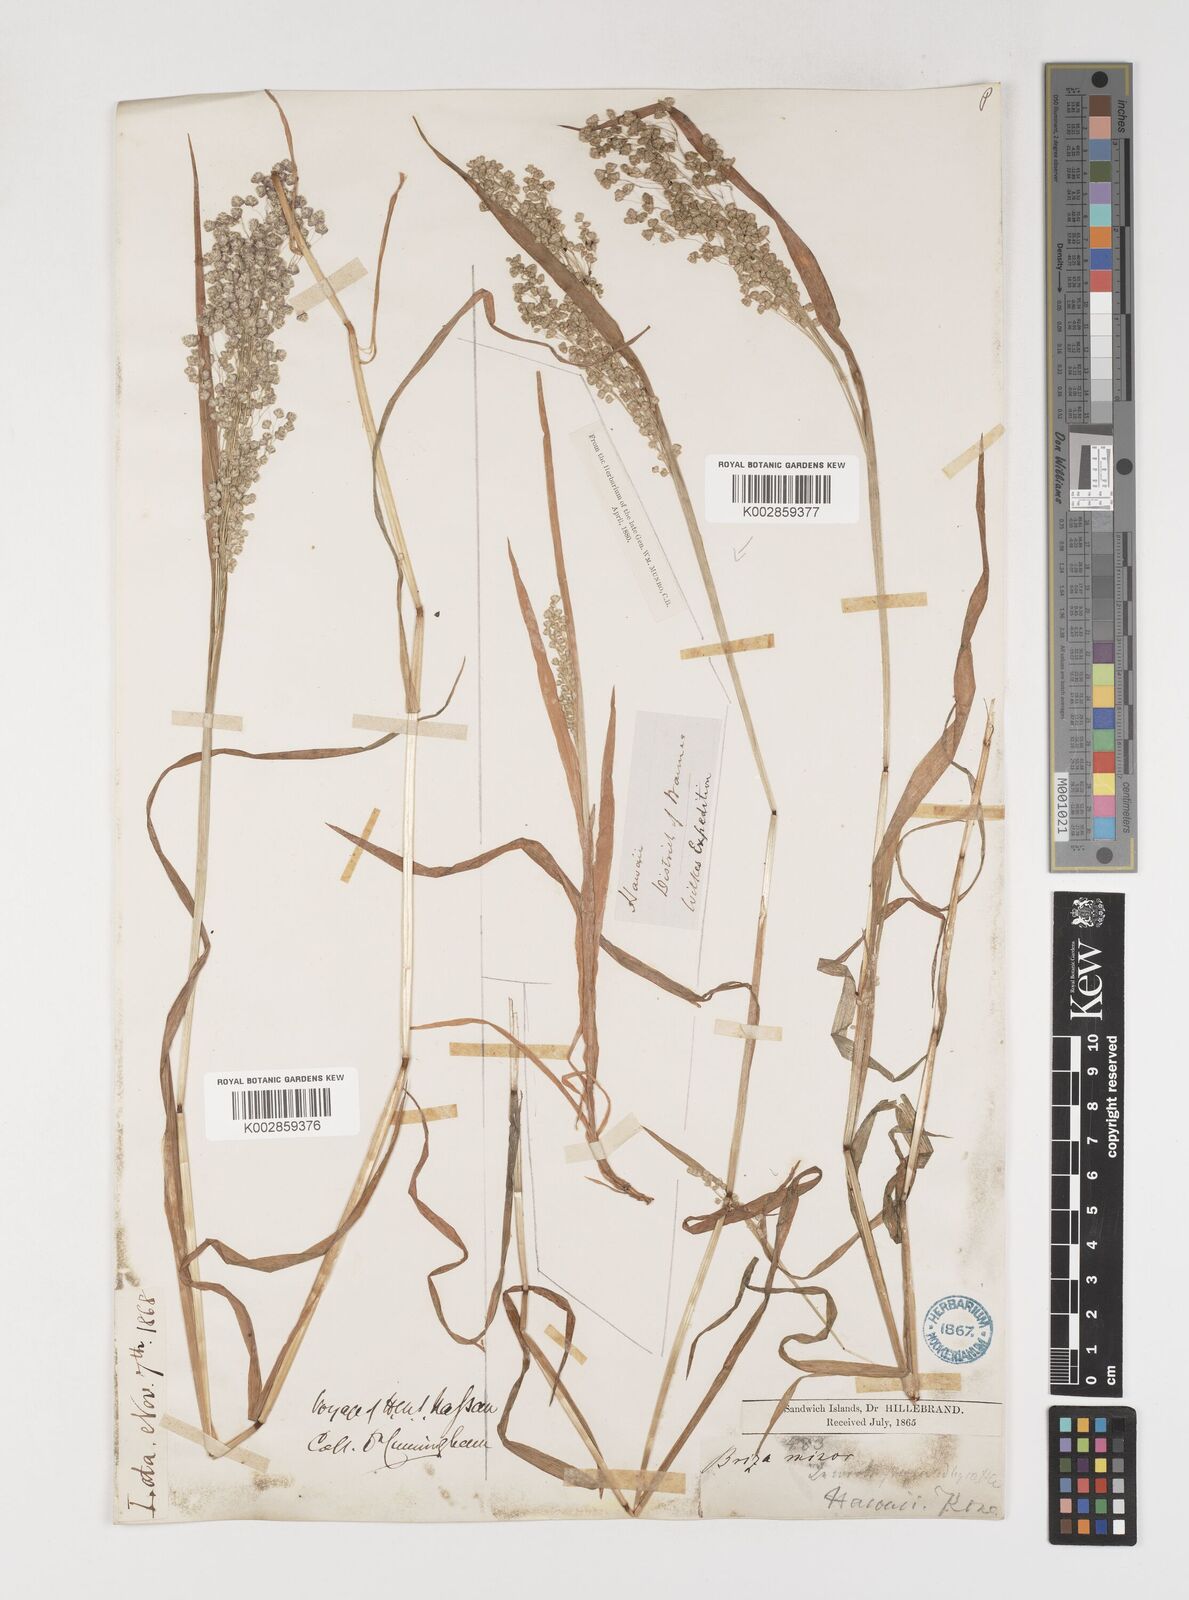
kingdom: Plantae
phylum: Tracheophyta
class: Liliopsida
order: Poales
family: Poaceae
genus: Briza
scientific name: Briza minor
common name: Lesser quaking-grass
